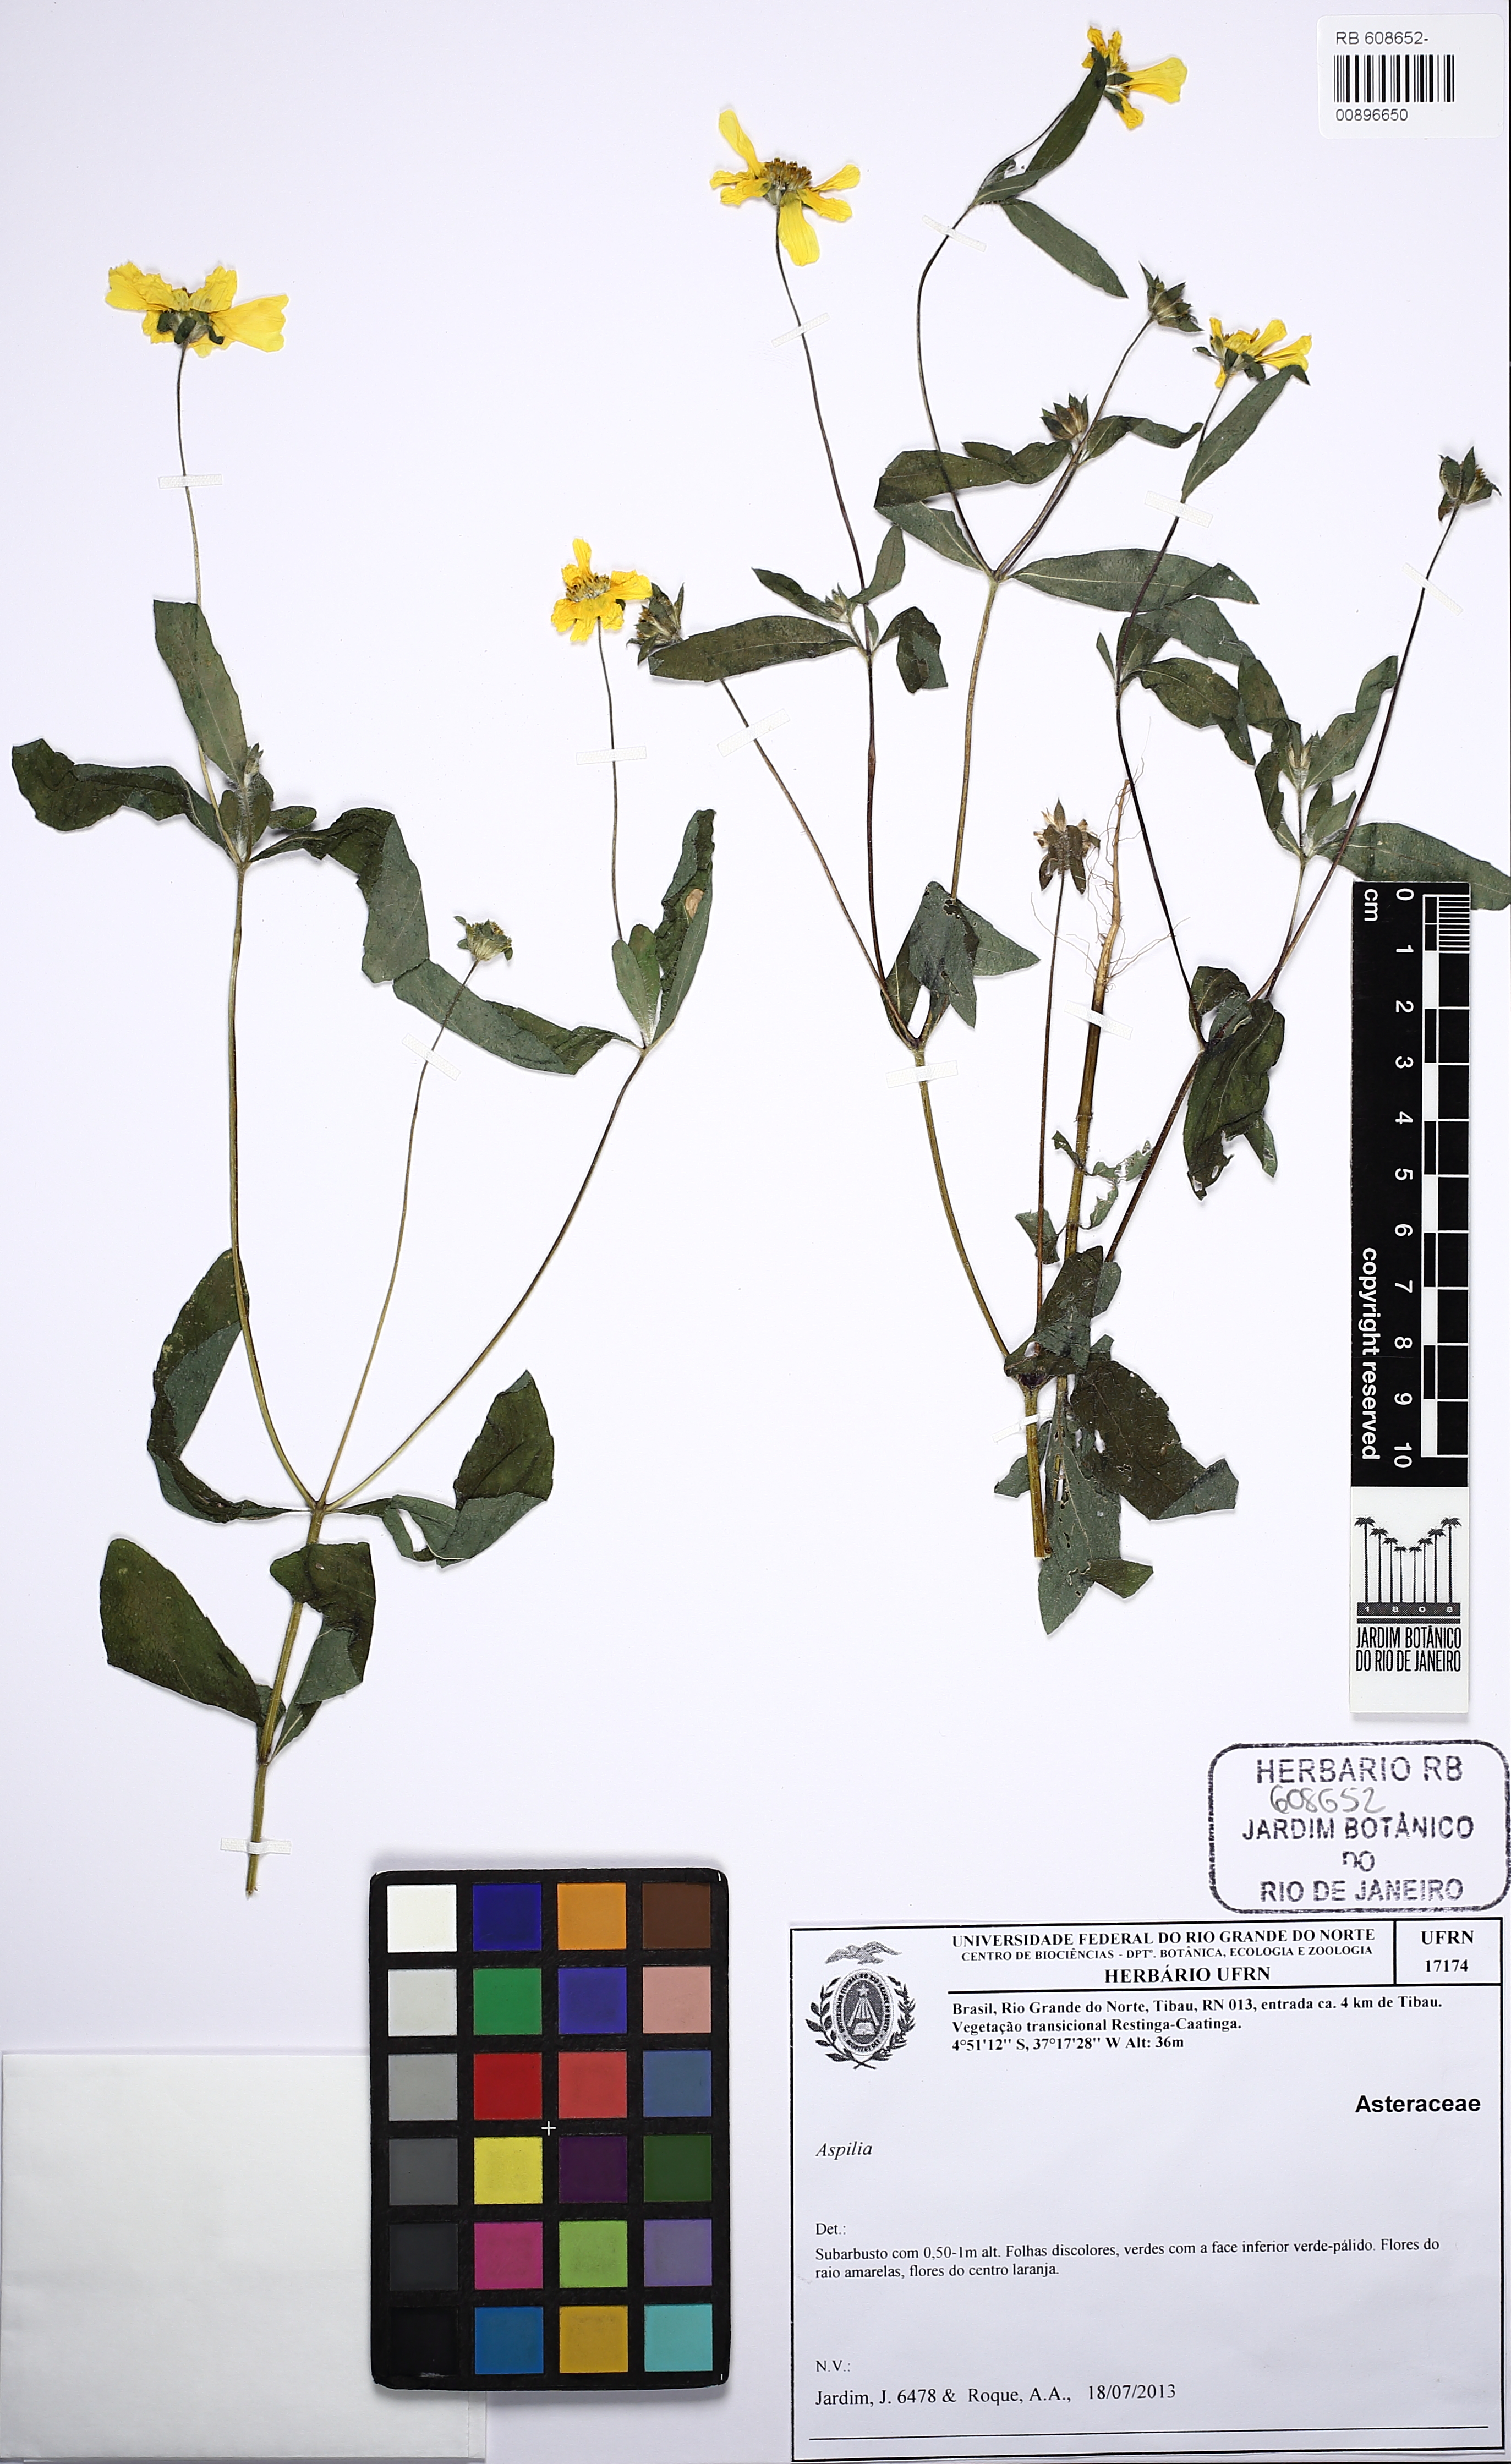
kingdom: Plantae
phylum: Tracheophyta
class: Magnoliopsida
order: Asterales
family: Asteraceae
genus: Wedelia
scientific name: Wedelia bonplandiana
